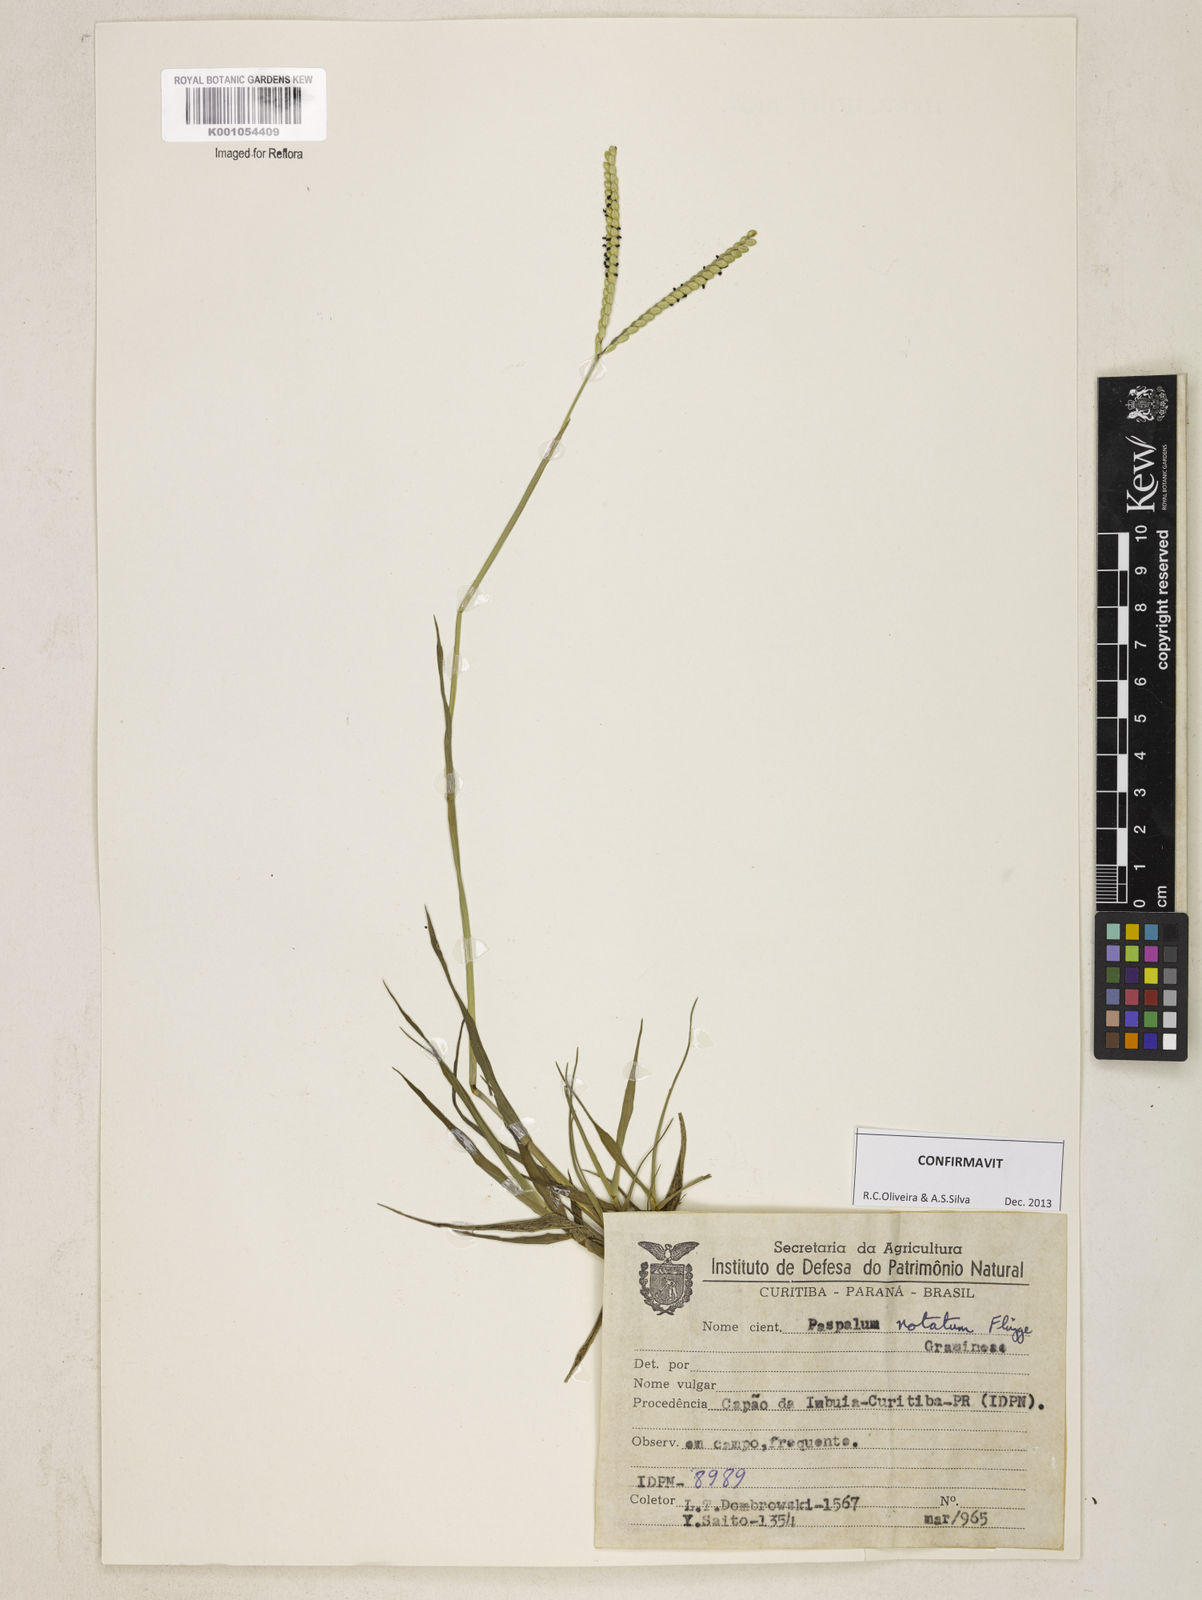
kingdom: Plantae
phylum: Tracheophyta
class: Liliopsida
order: Poales
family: Poaceae
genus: Paspalum
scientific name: Paspalum
